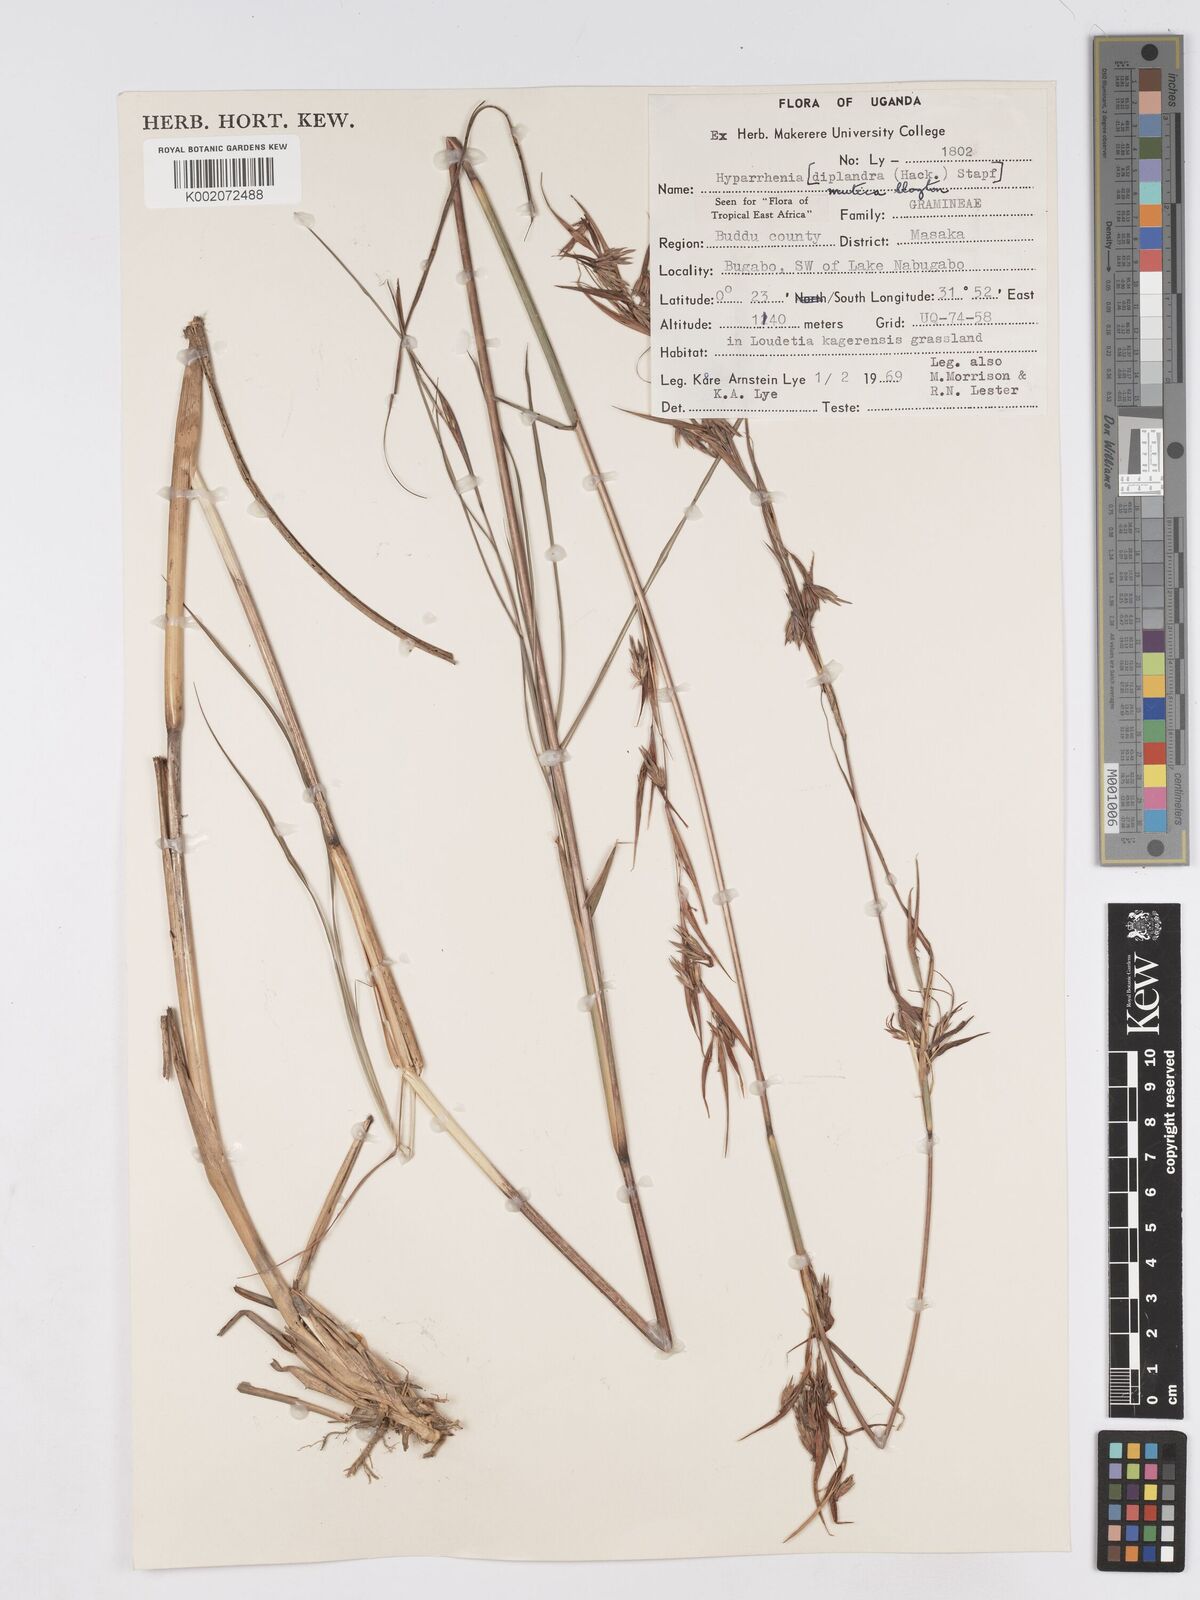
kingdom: Plantae
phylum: Tracheophyta
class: Liliopsida
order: Poales
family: Poaceae
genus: Hyparrhenia
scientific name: Hyparrhenia diplandra
